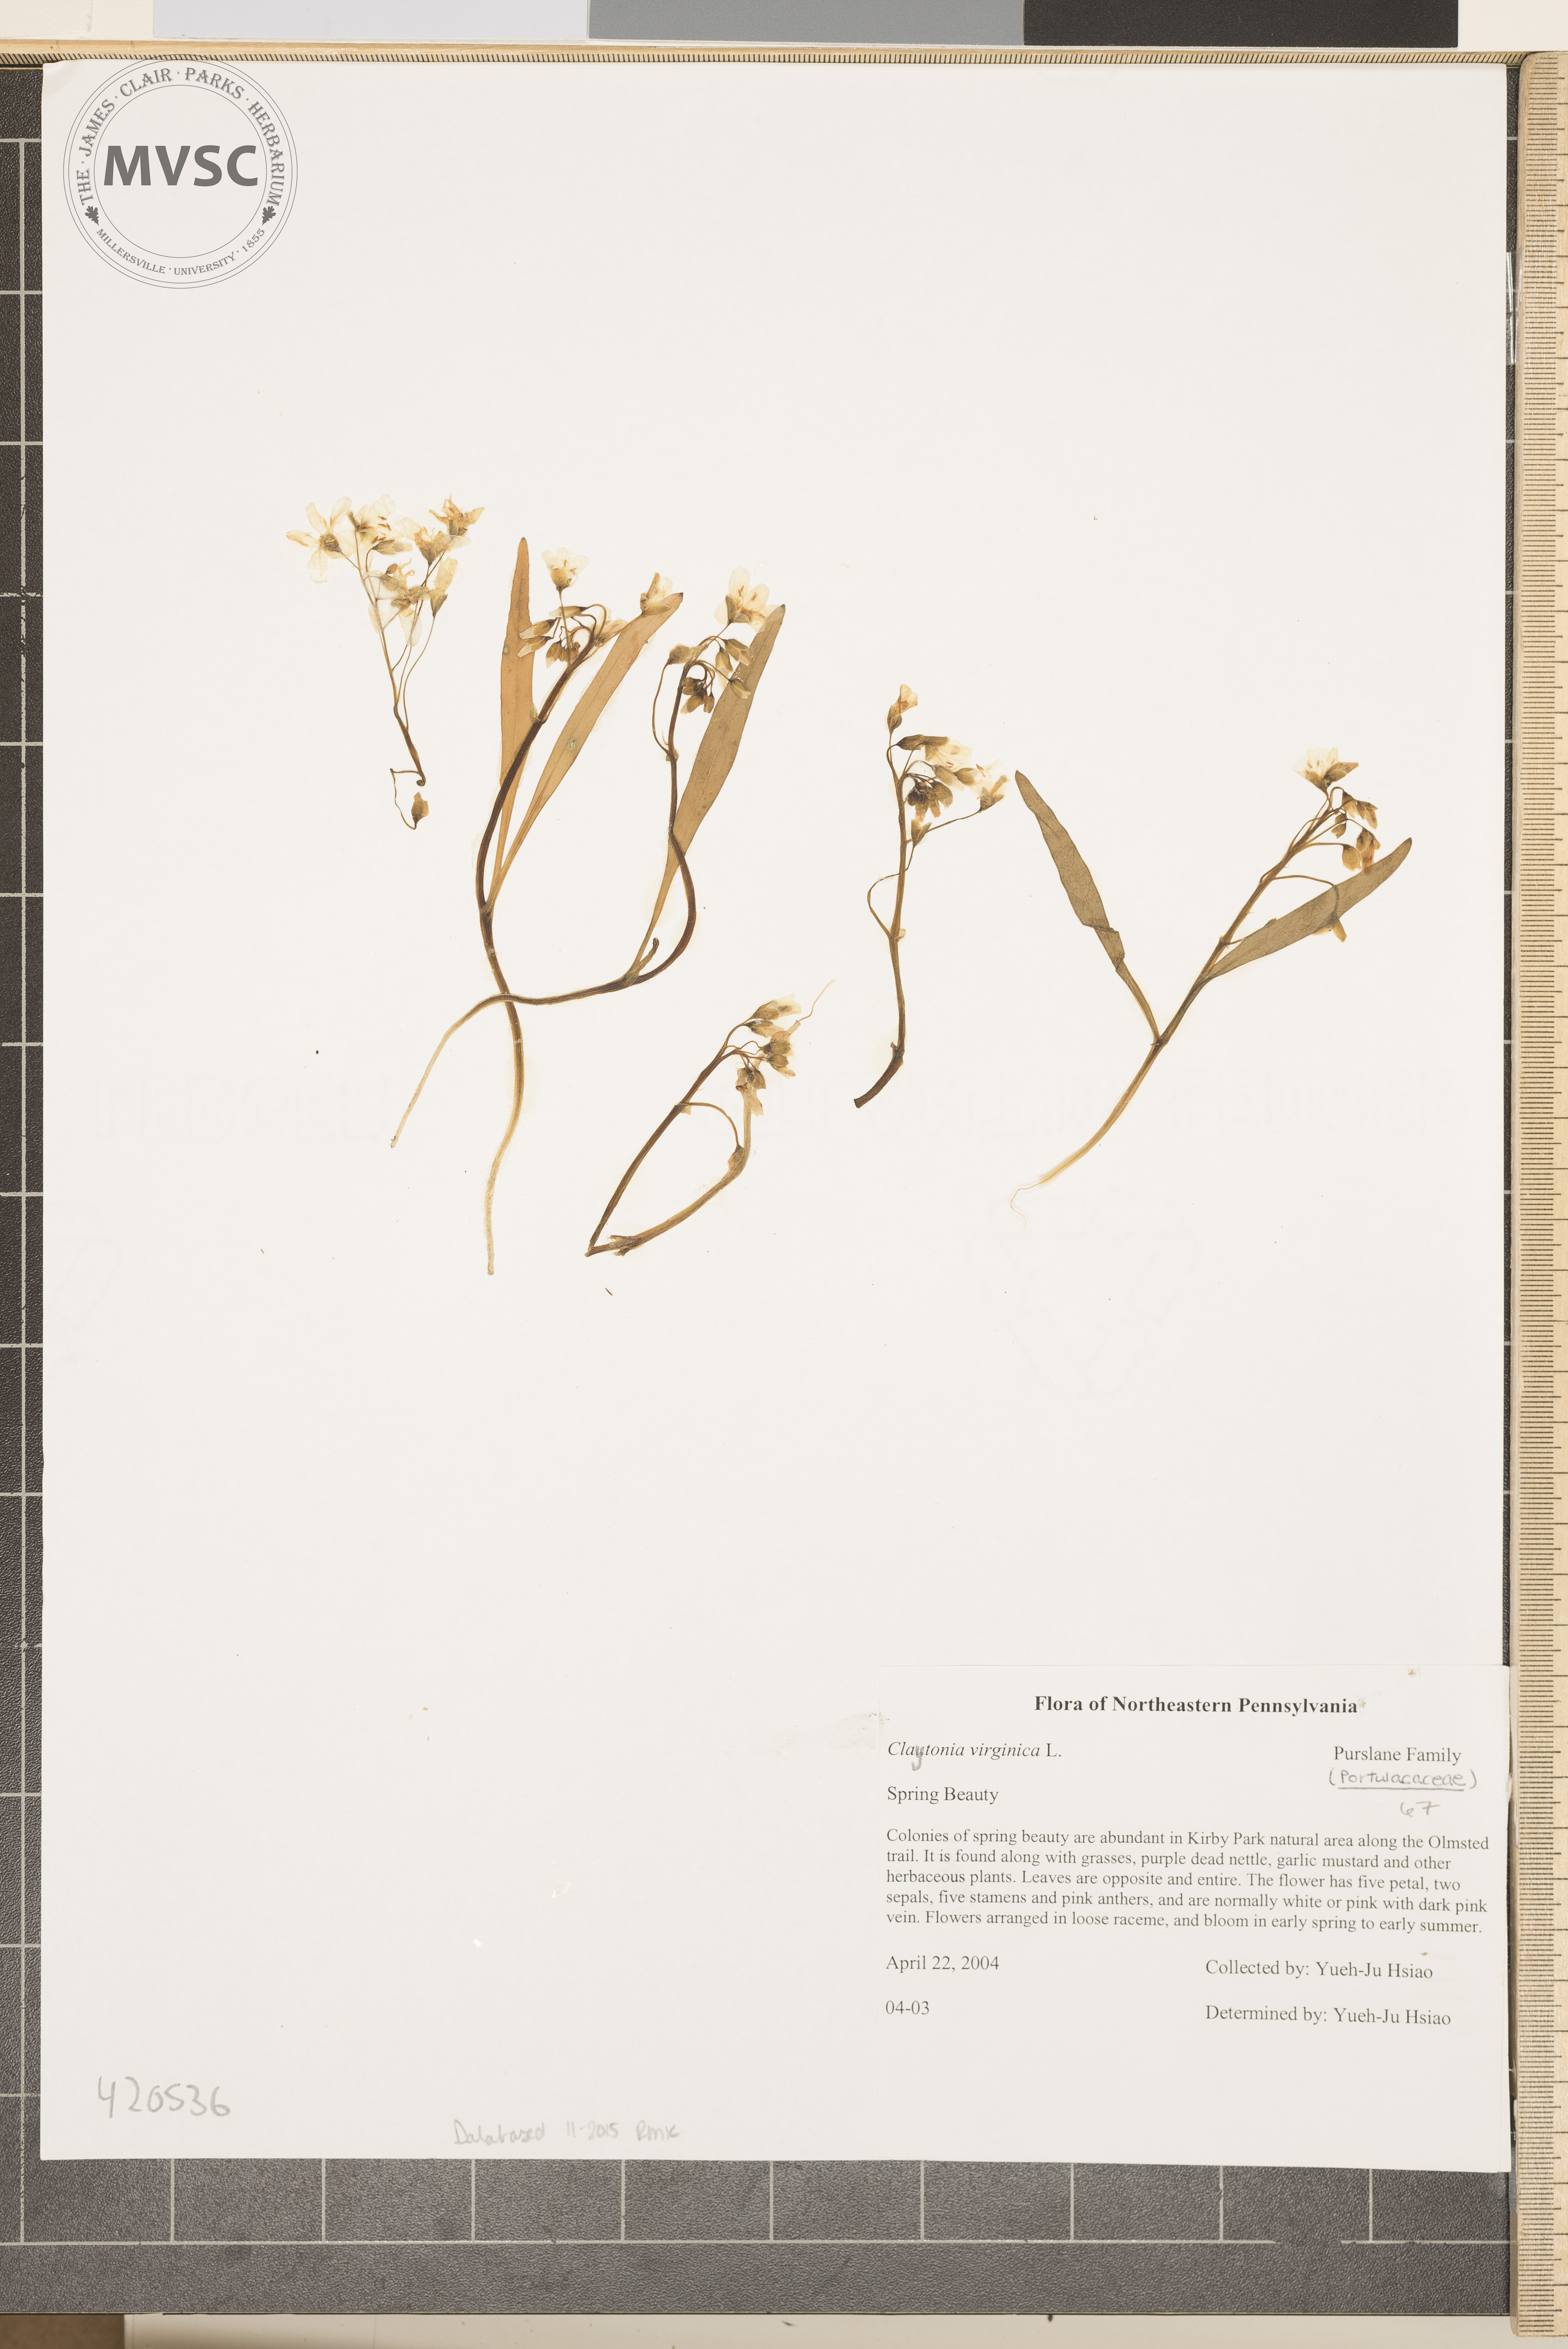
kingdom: Plantae
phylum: Tracheophyta
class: Magnoliopsida
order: Caryophyllales
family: Montiaceae
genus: Claytonia
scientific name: Claytonia virginica
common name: Spring Beauty
